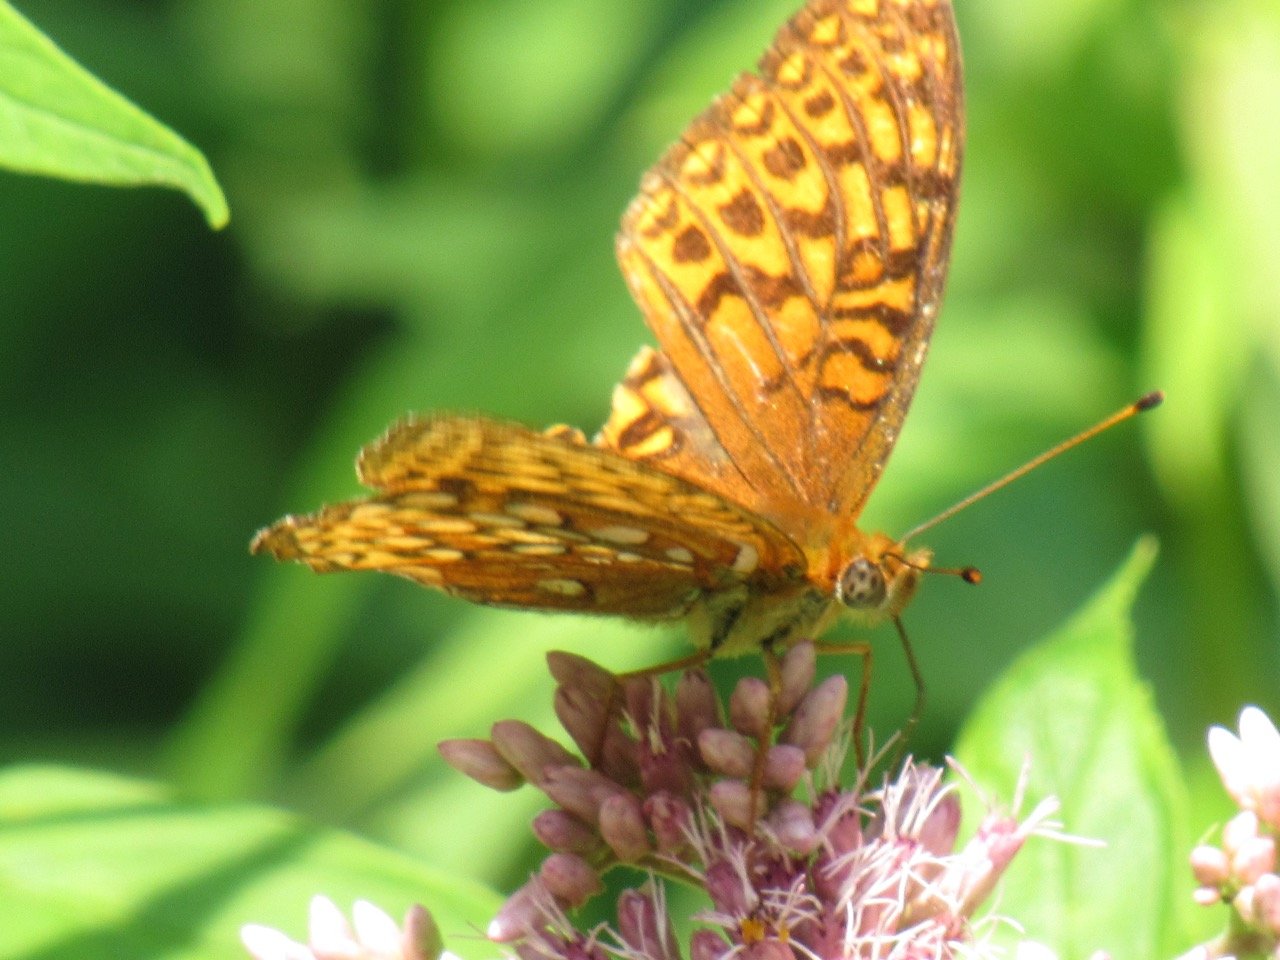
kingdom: Animalia
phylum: Arthropoda
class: Insecta
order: Lepidoptera
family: Nymphalidae
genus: Speyeria
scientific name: Speyeria atlantis
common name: Atlantis Fritillary
